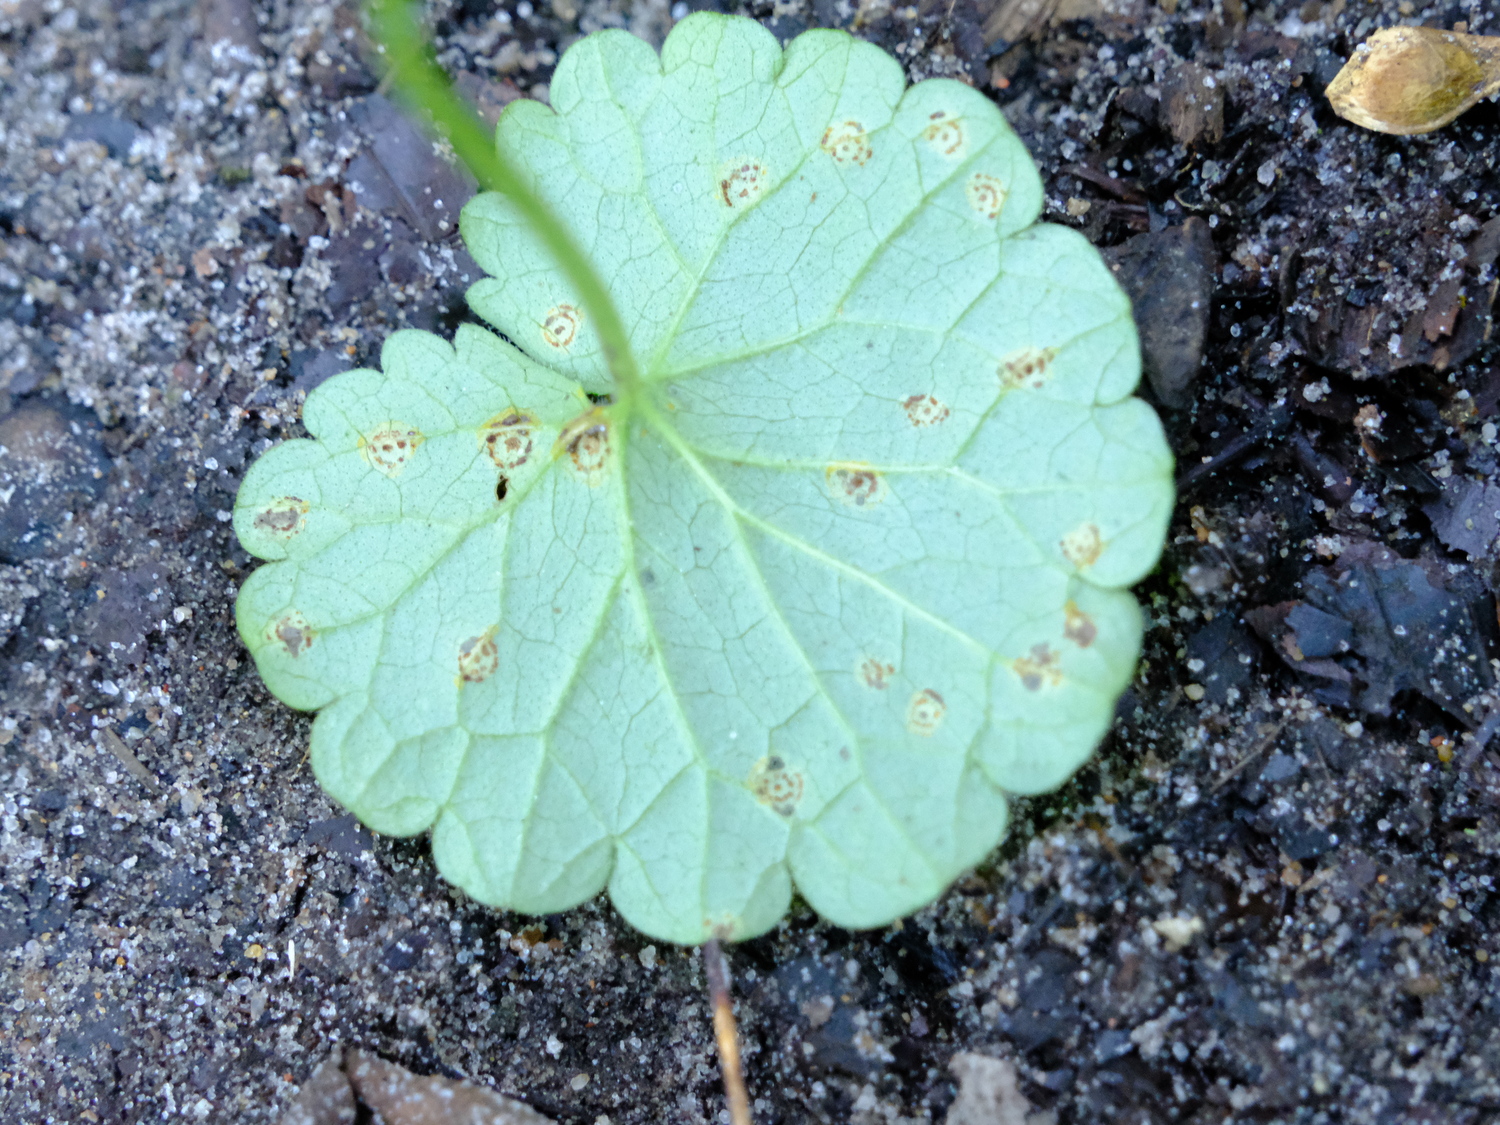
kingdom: Fungi
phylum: Basidiomycota
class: Pucciniomycetes
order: Pucciniales
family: Pucciniaceae
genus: Puccinia
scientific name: Puccinia glechomatis
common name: Ground ivy rust
